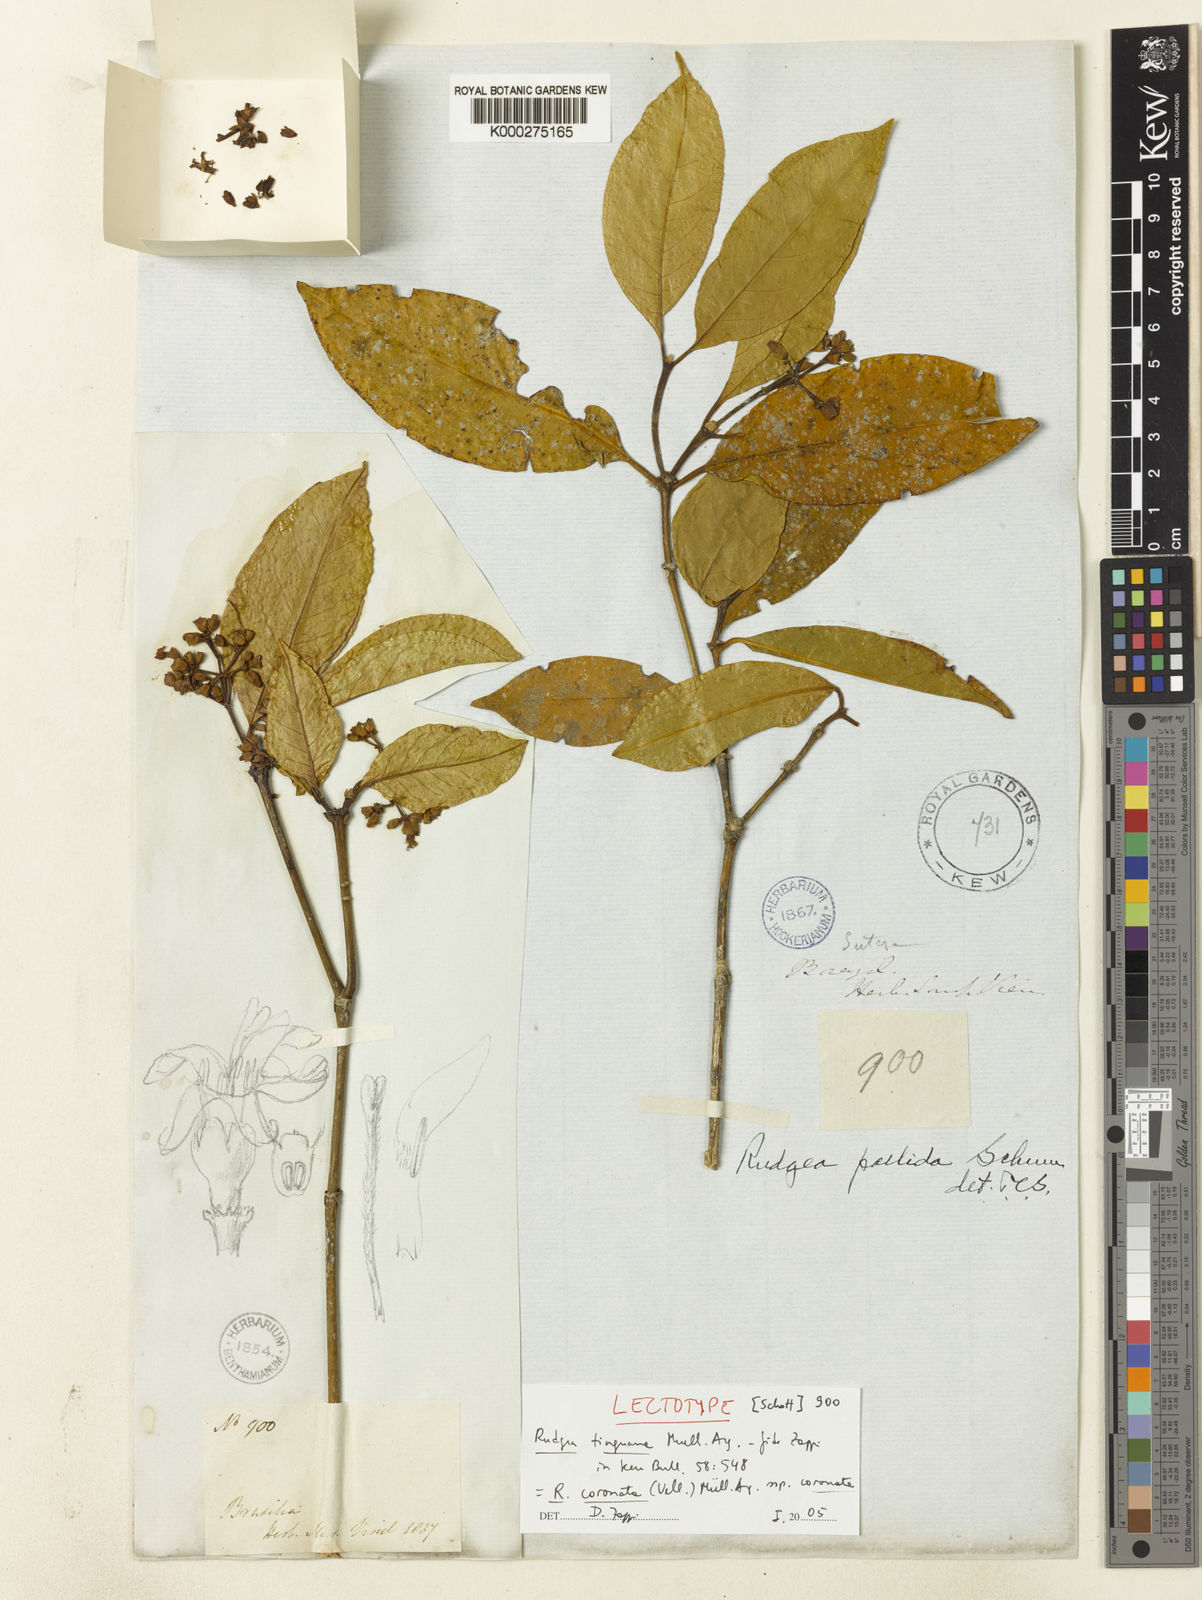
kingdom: Plantae
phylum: Tracheophyta
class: Magnoliopsida
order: Gentianales
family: Rubiaceae
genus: Rudgea
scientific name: Rudgea
